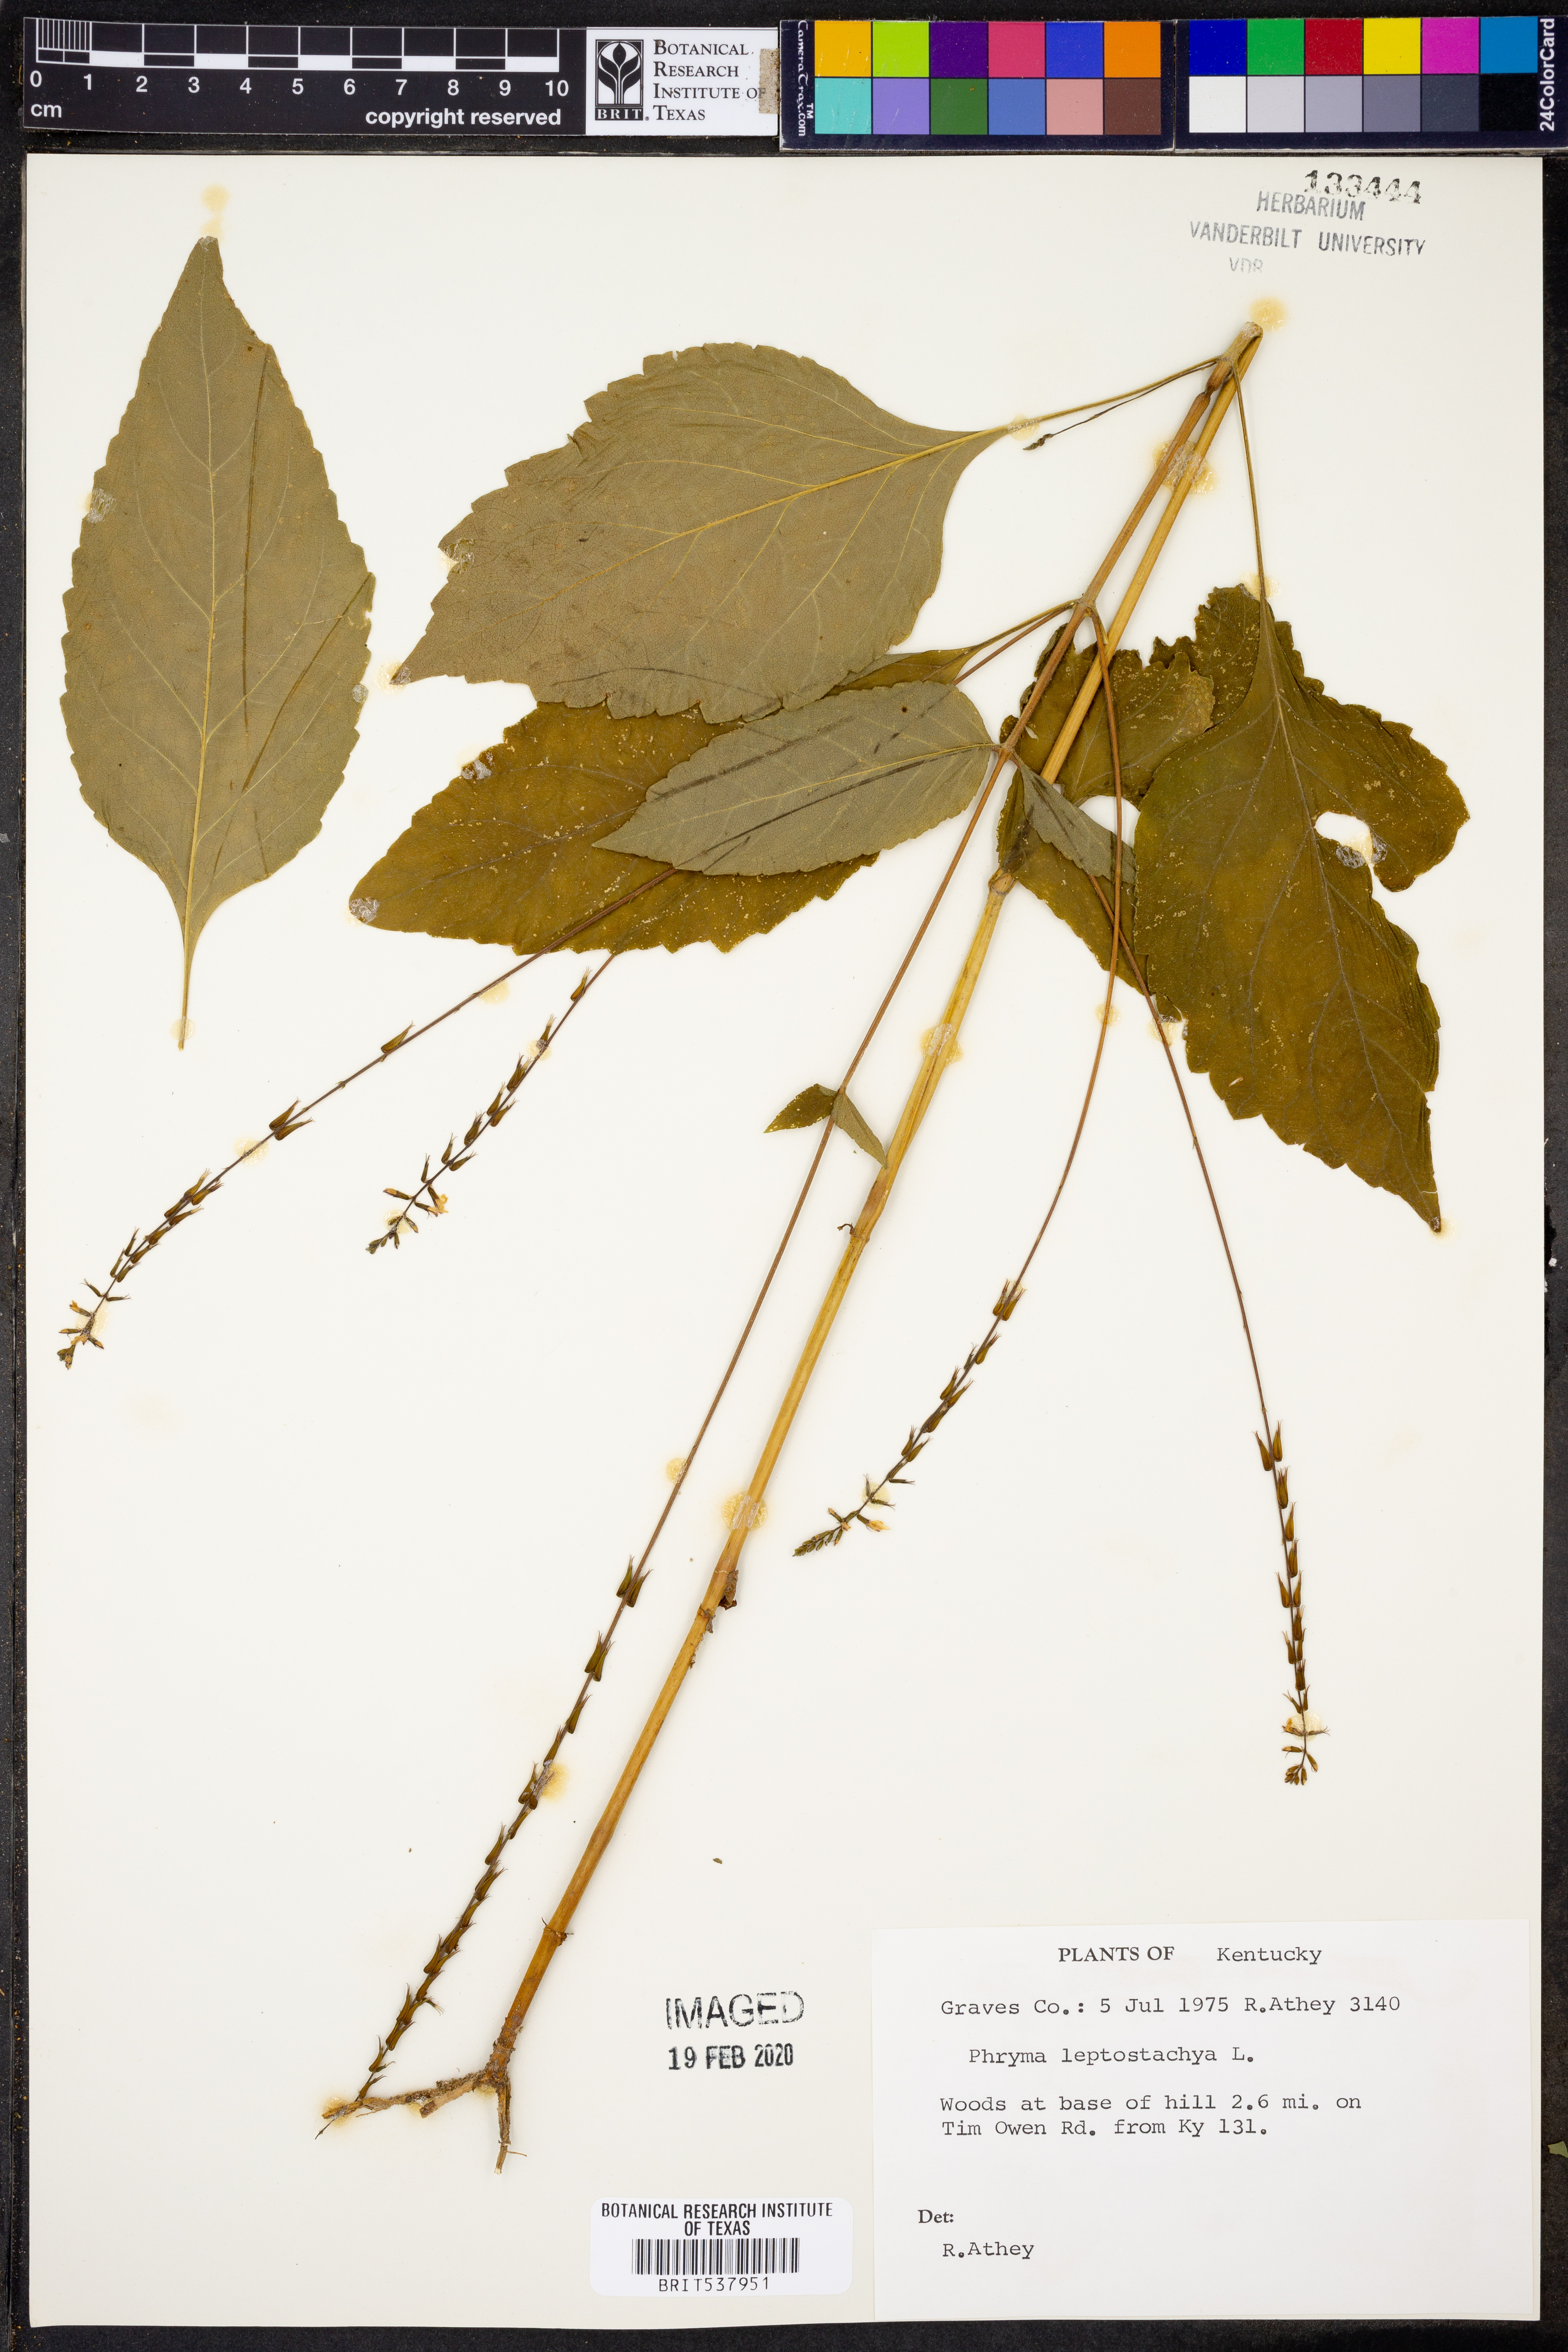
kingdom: Plantae
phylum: Tracheophyta
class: Magnoliopsida
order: Lamiales
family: Phrymaceae
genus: Phryma
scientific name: Phryma leptostachya
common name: American lopseed
